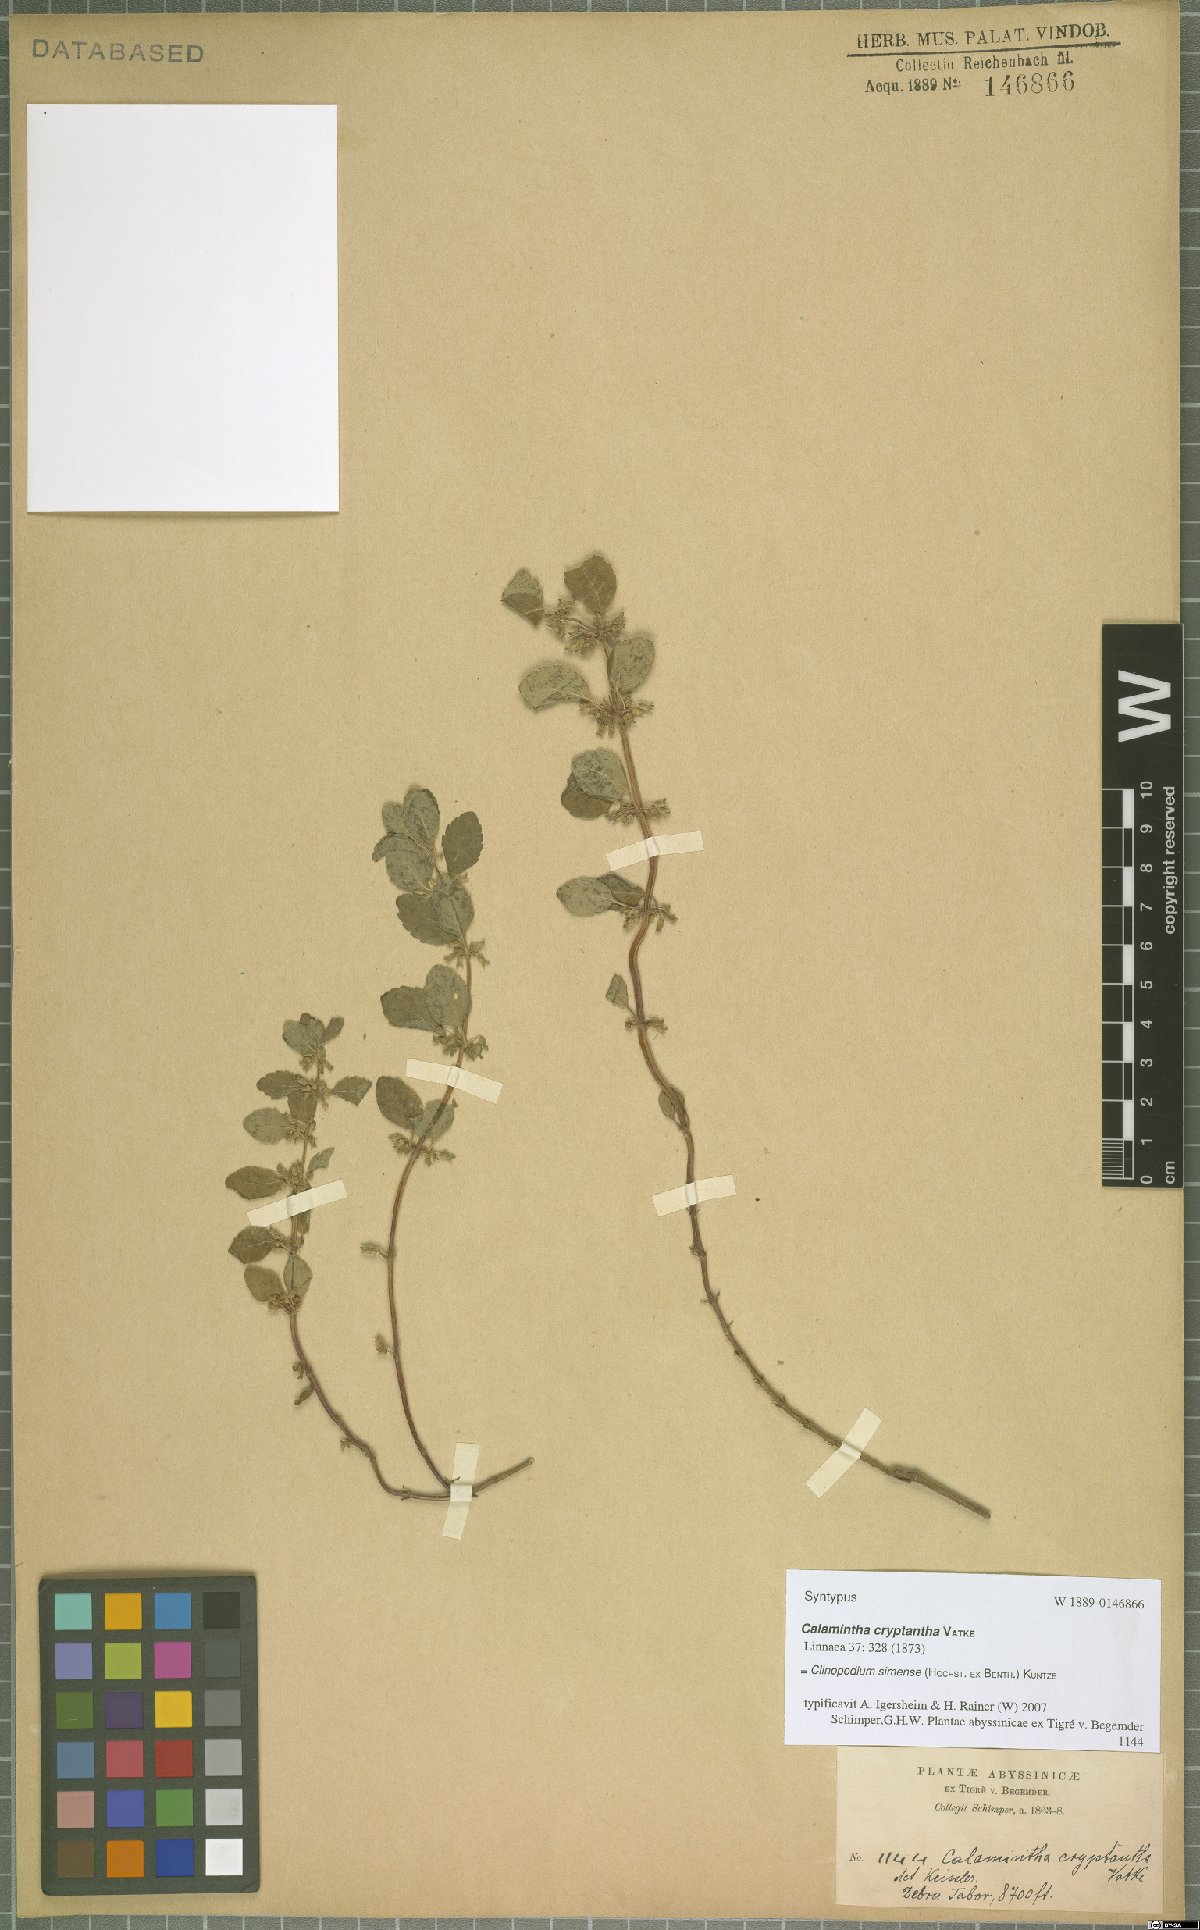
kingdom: Plantae
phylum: Tracheophyta
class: Magnoliopsida
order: Lamiales
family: Lamiaceae
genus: Clinopodium
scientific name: Clinopodium simense
